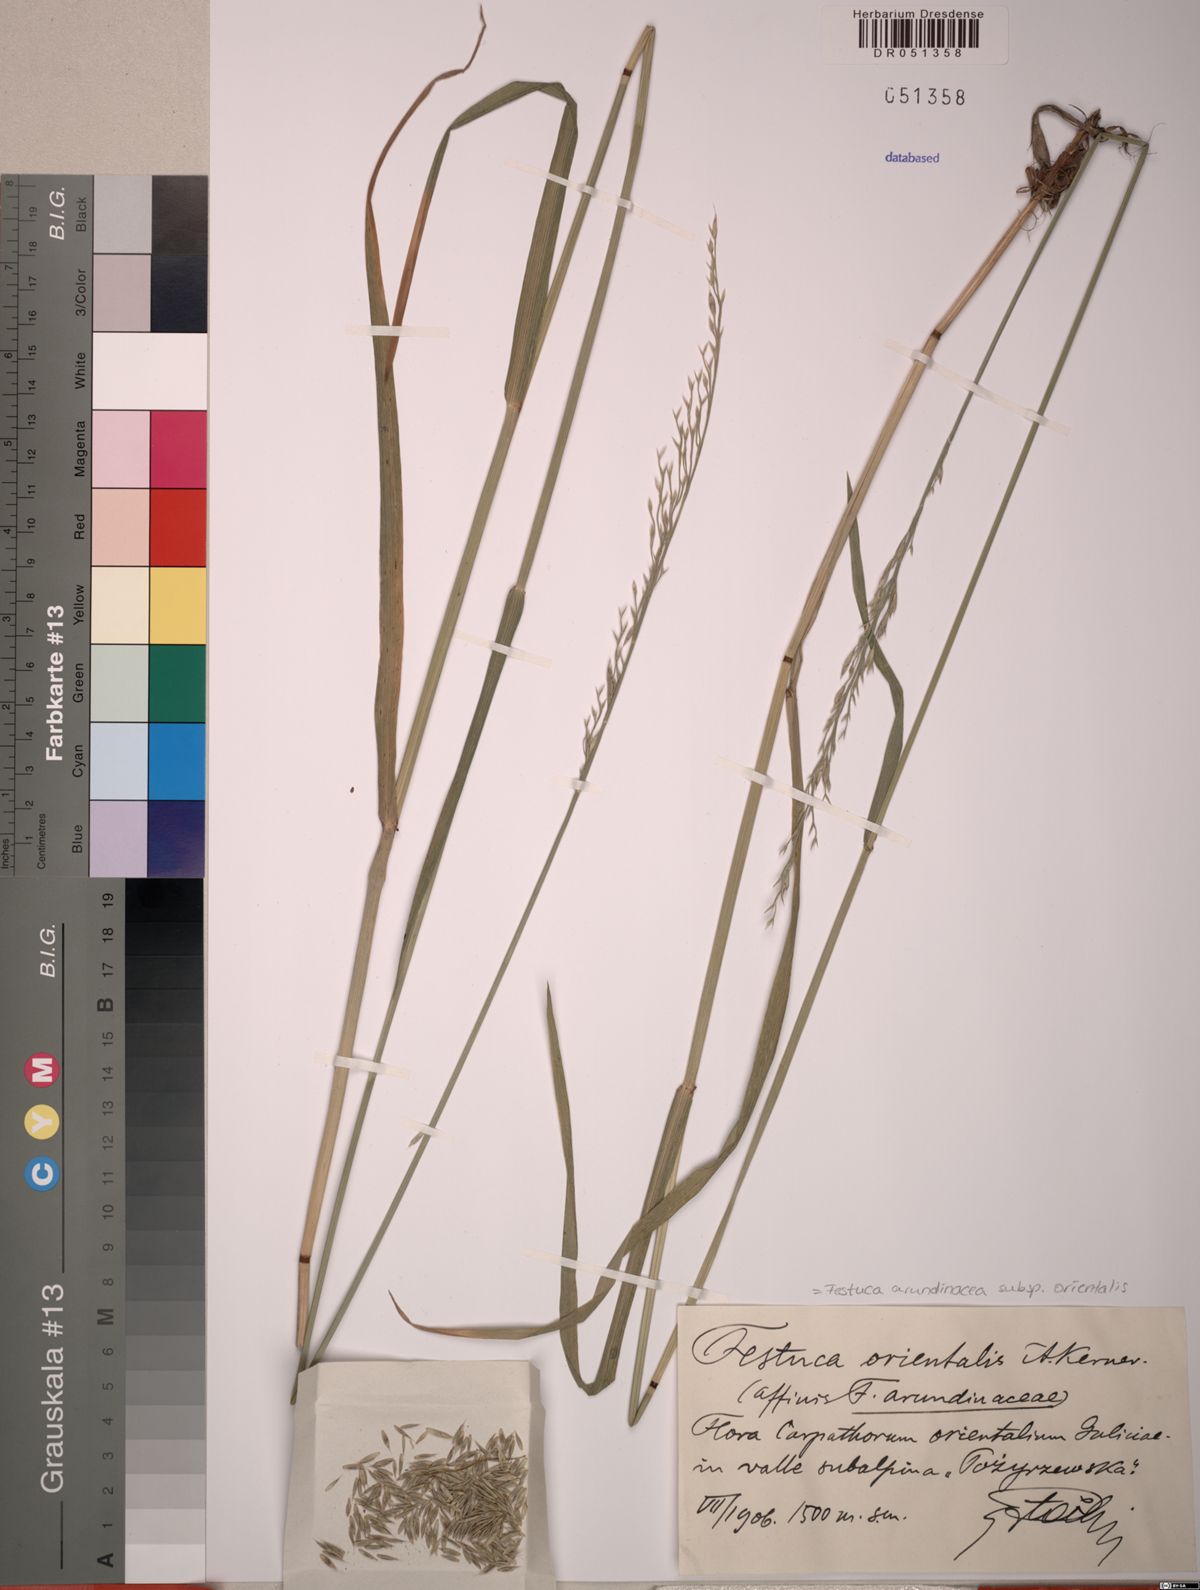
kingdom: Plantae
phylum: Tracheophyta
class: Liliopsida
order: Poales
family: Poaceae
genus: Lolium
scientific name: Lolium arundinaceum
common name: Reed fescue
